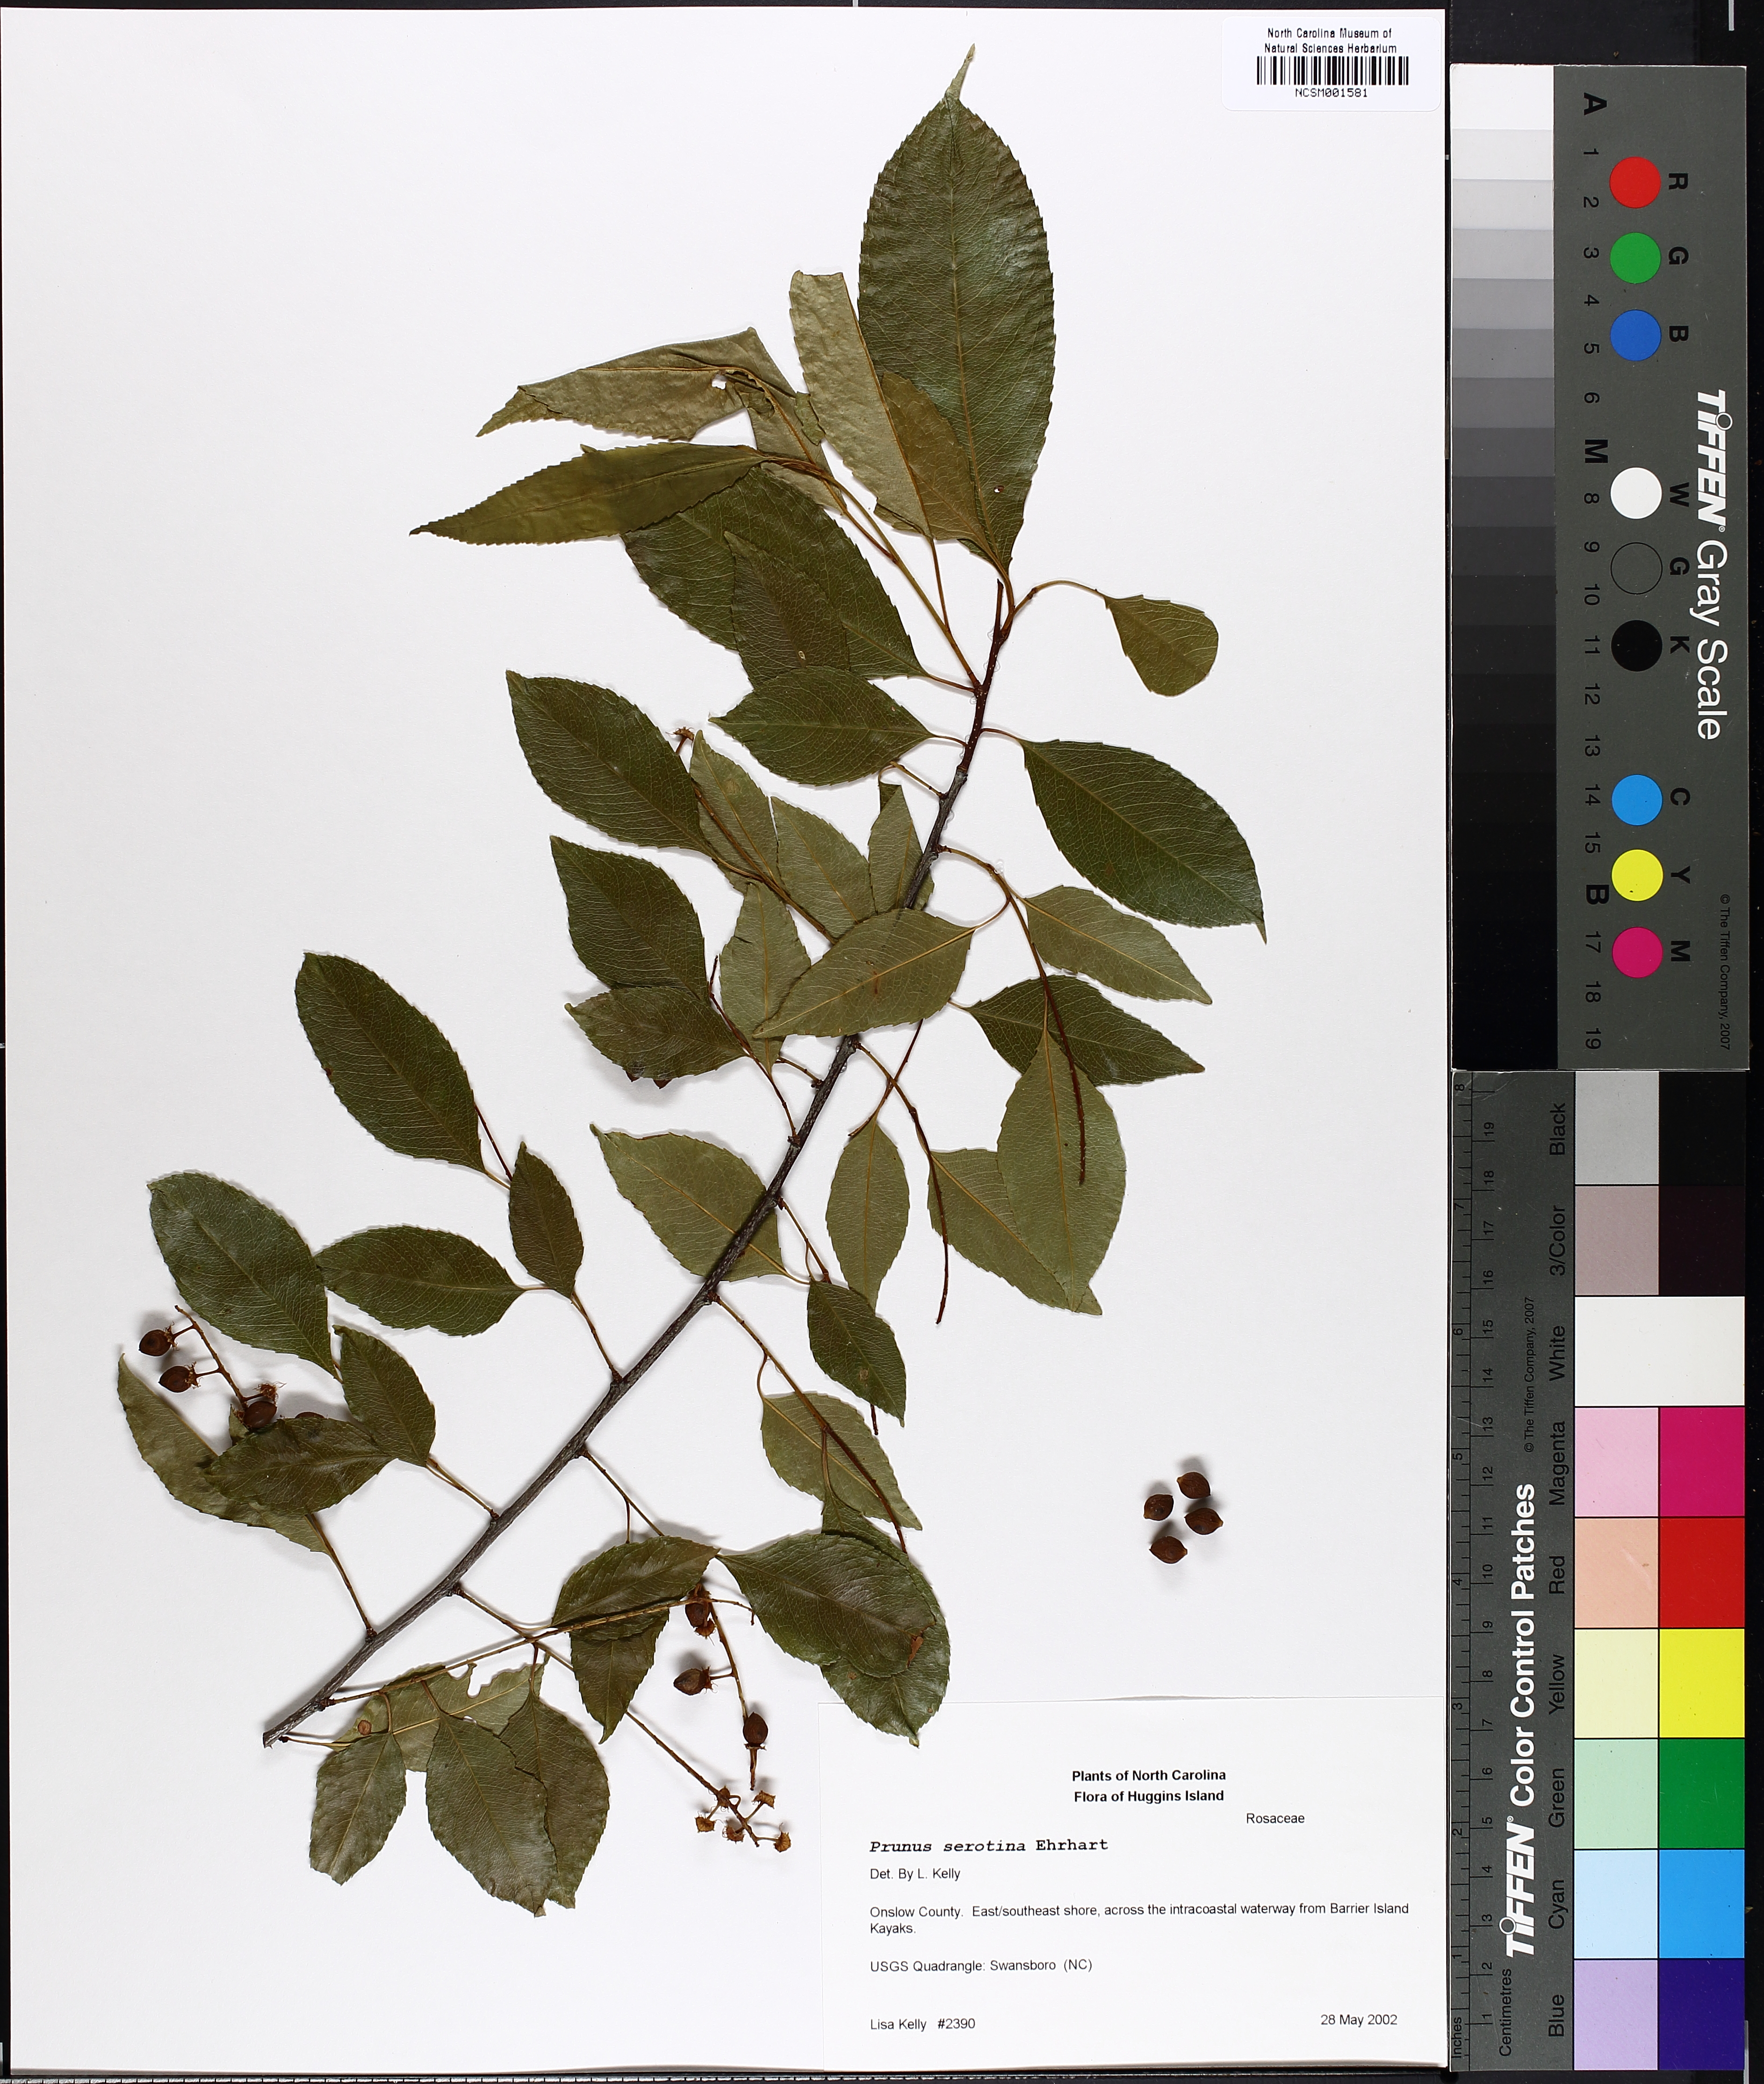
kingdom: Plantae
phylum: Tracheophyta
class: Magnoliopsida
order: Rosales
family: Rosaceae
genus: Prunus
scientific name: Prunus serotina
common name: Black cherry
